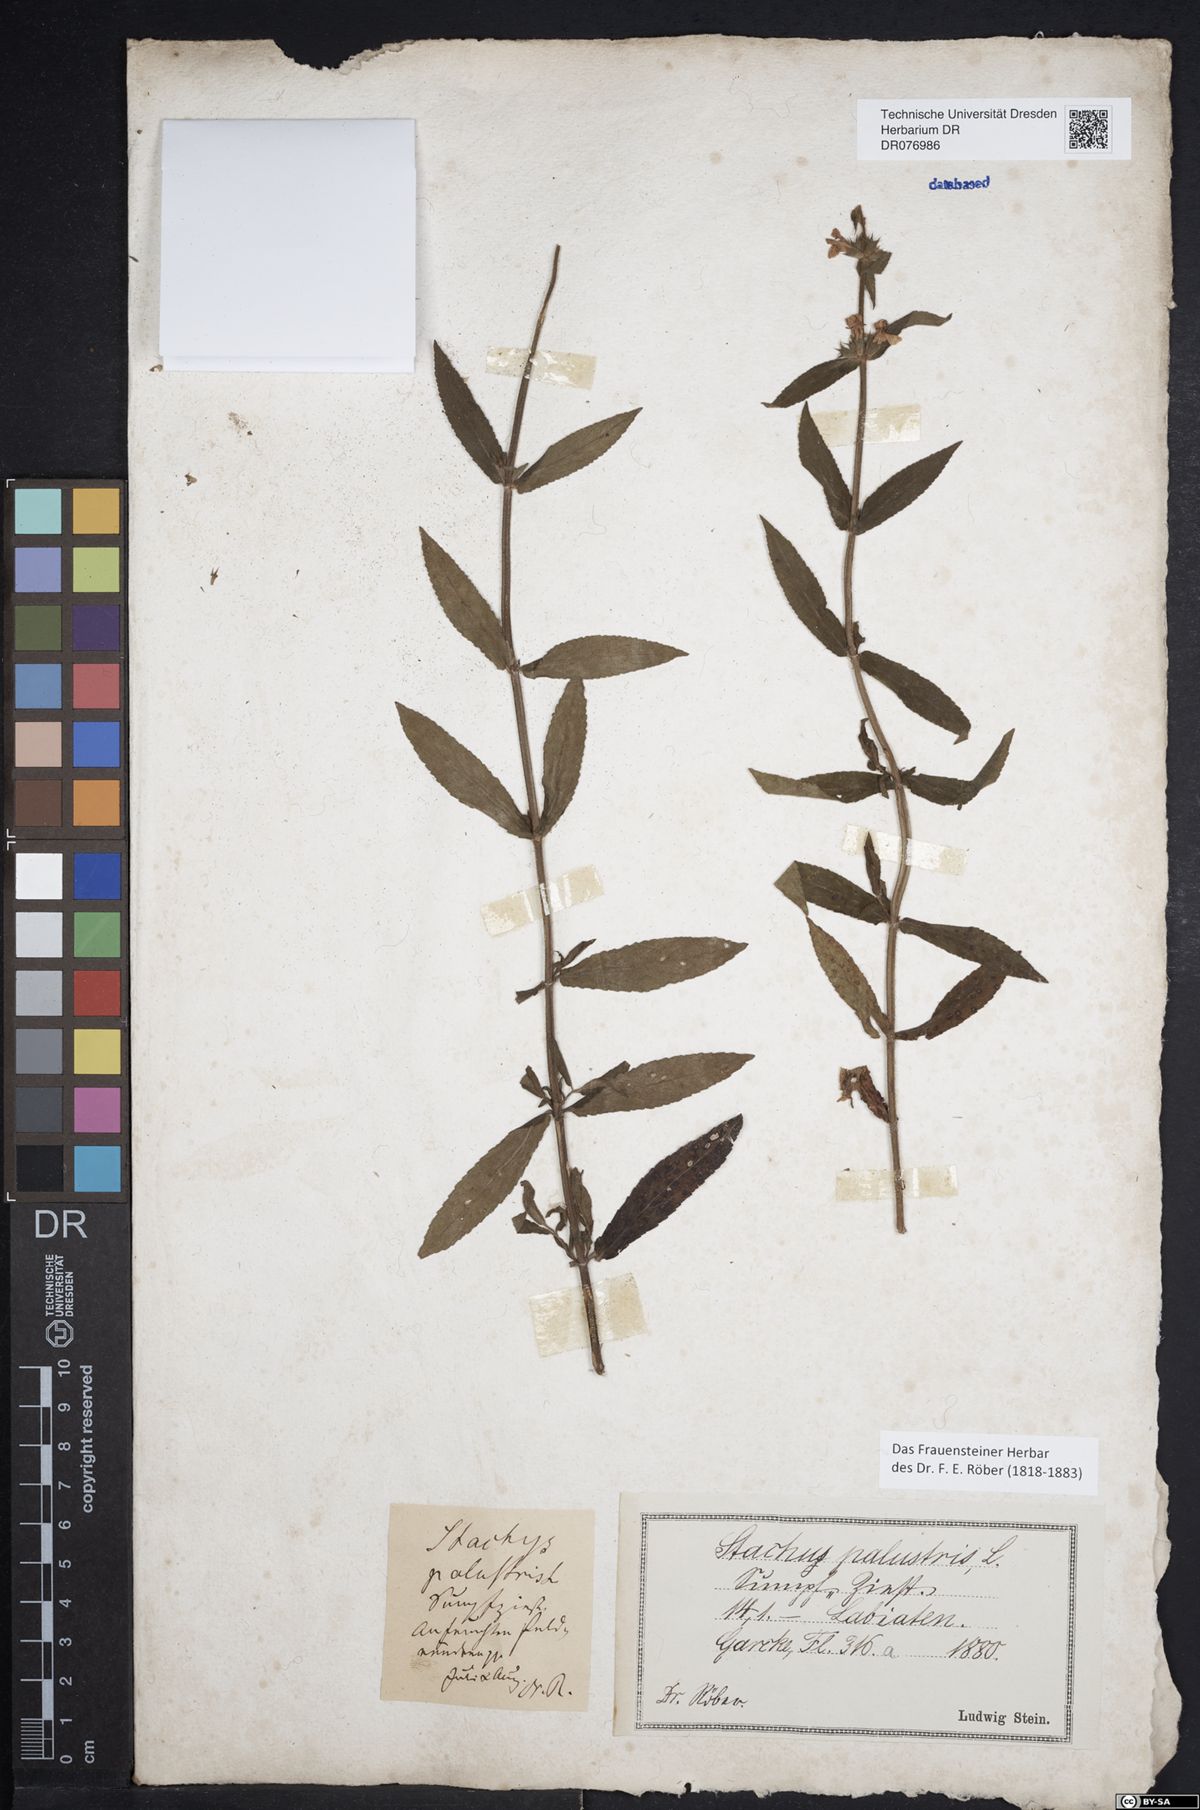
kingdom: Plantae
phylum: Tracheophyta
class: Magnoliopsida
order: Lamiales
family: Lamiaceae
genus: Stachys
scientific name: Stachys palustris
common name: Marsh woundwort
